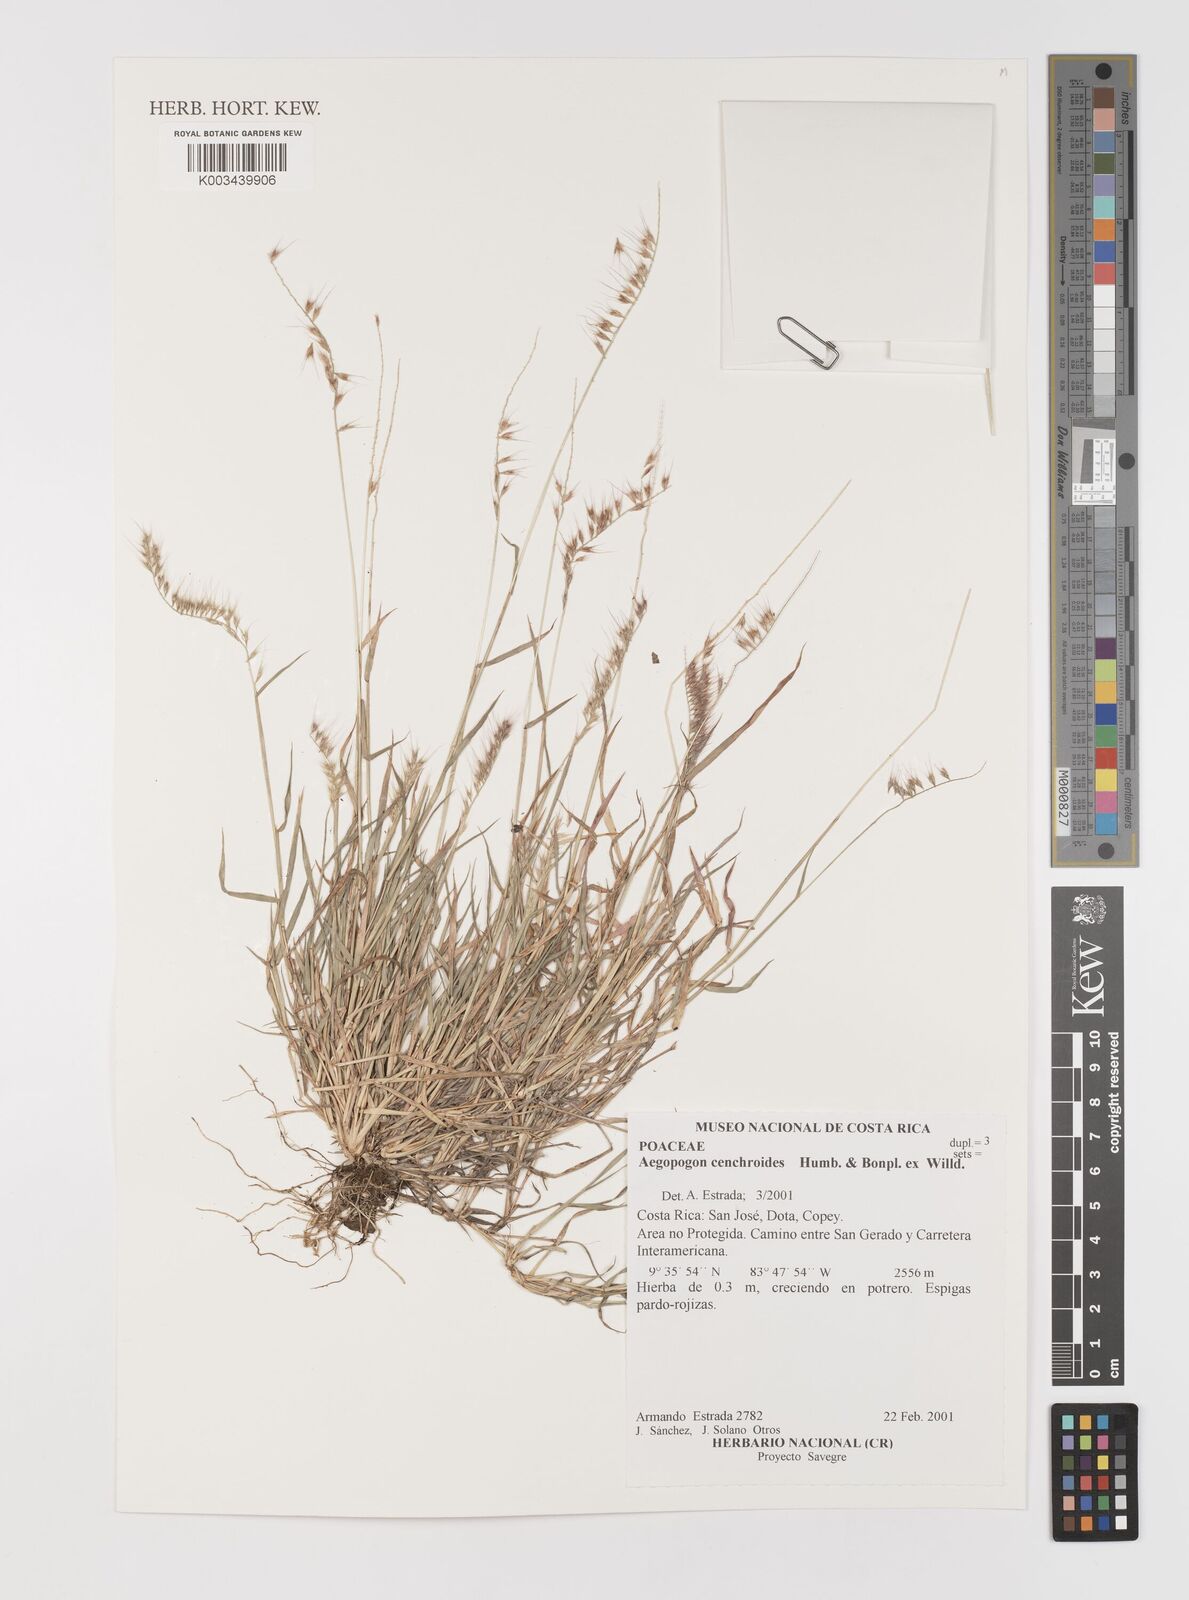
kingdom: Plantae
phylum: Tracheophyta
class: Liliopsida
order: Poales
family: Poaceae
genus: Muhlenbergia
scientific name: Muhlenbergia cenchroides
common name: Relaxgrass
